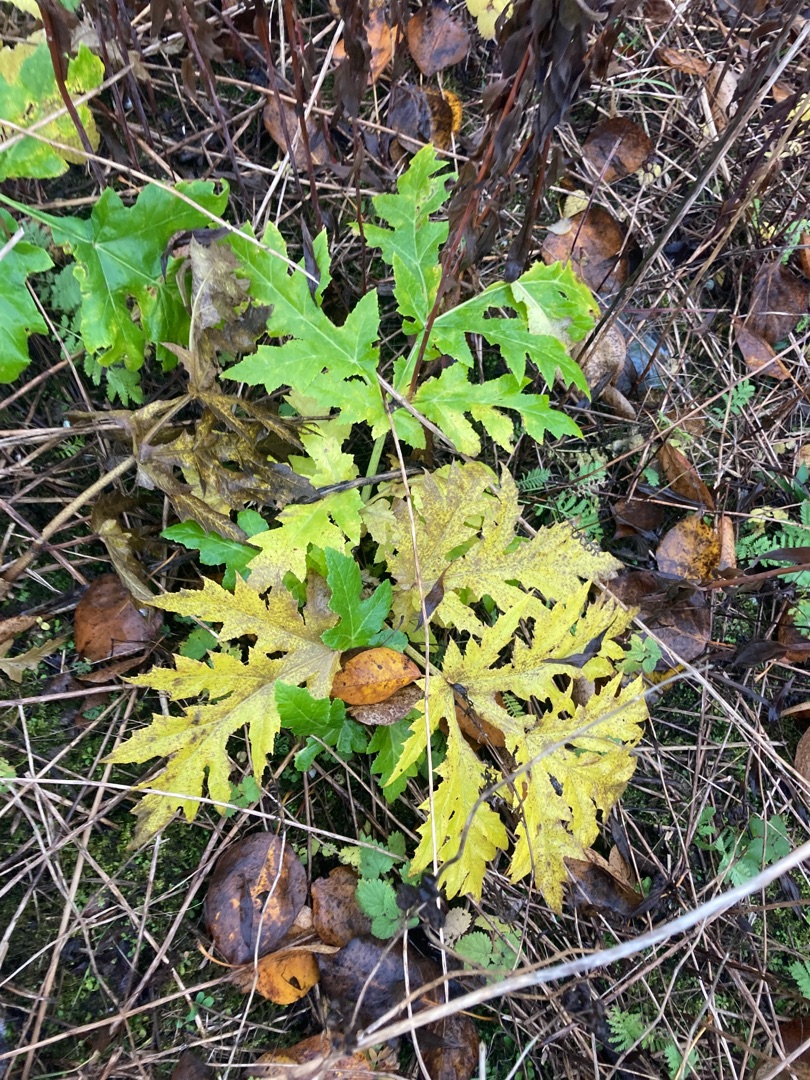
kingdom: Plantae
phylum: Tracheophyta
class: Magnoliopsida
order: Apiales
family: Apiaceae
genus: Heracleum
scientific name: Heracleum mantegazzianum
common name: Kæmpe-bjørneklo
